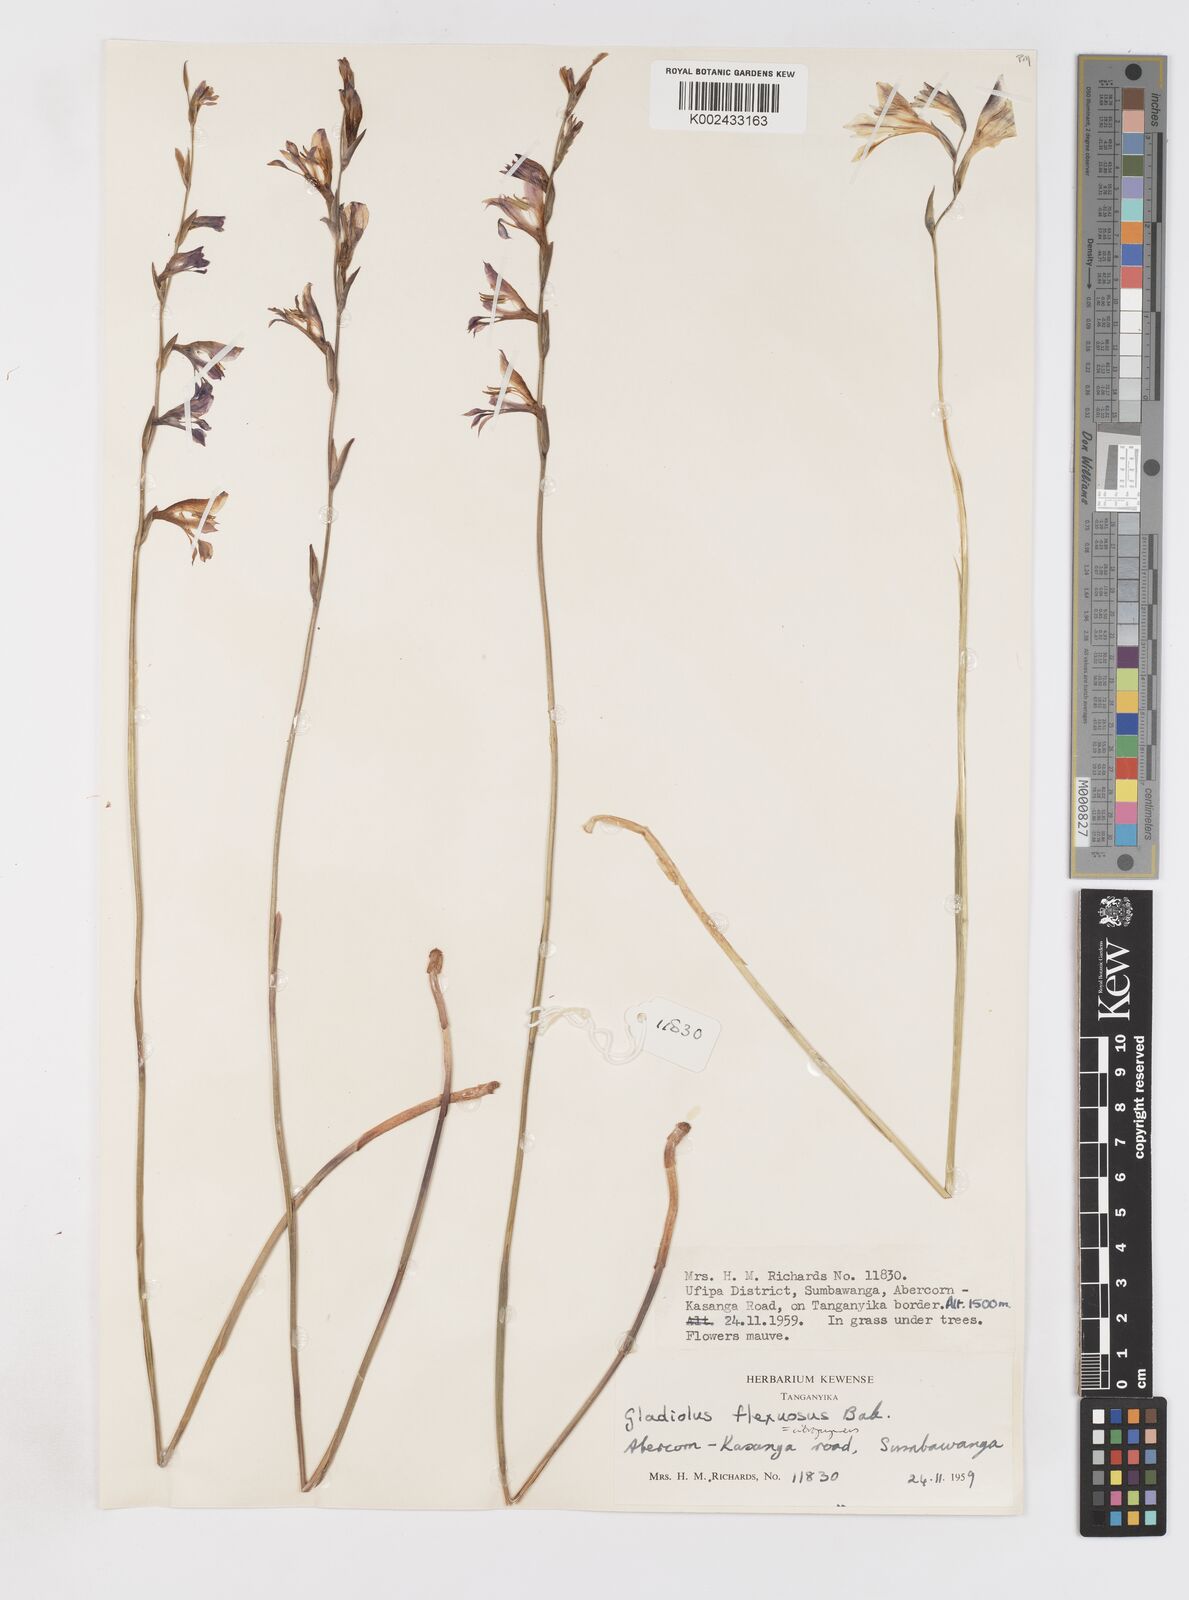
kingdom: Plantae
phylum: Tracheophyta
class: Liliopsida
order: Asparagales
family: Iridaceae
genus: Gladiolus
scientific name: Gladiolus atropurpureus
